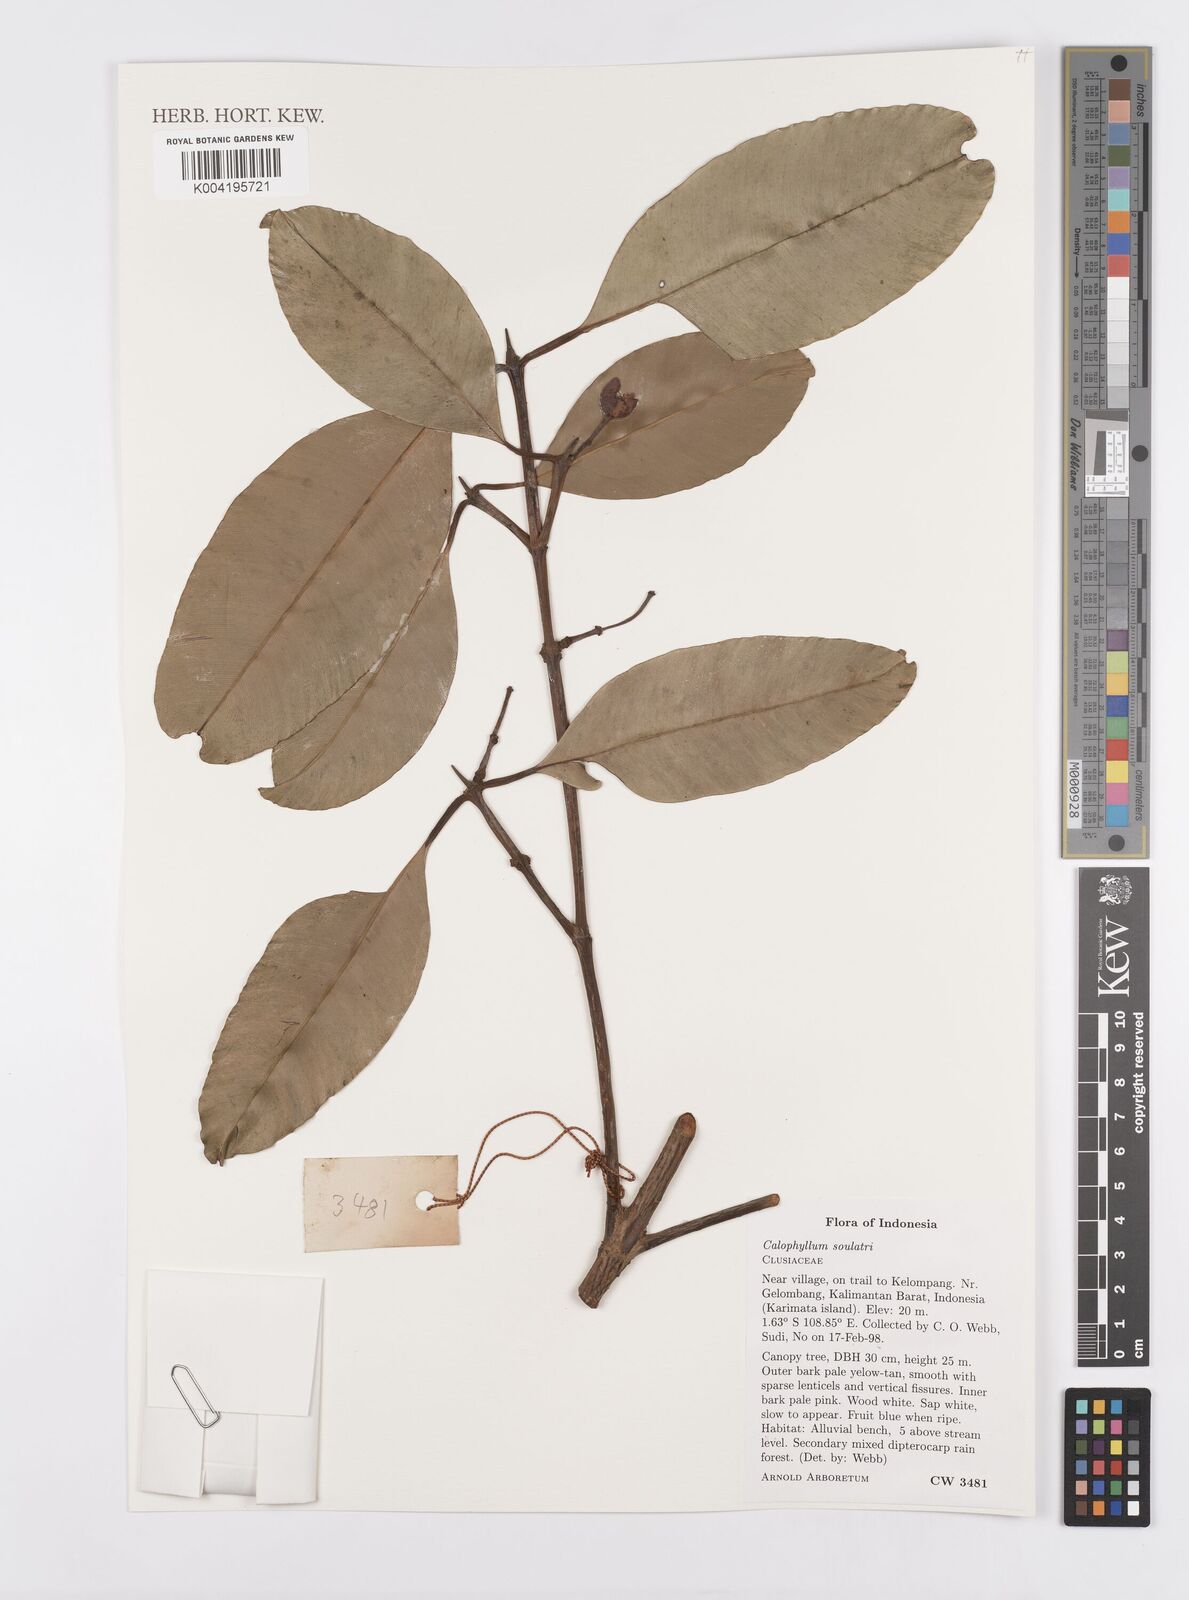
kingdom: Plantae
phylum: Tracheophyta
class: Magnoliopsida
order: Malpighiales
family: Calophyllaceae
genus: Calophyllum
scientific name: Calophyllum soulattri
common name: Bitangoor boonot
